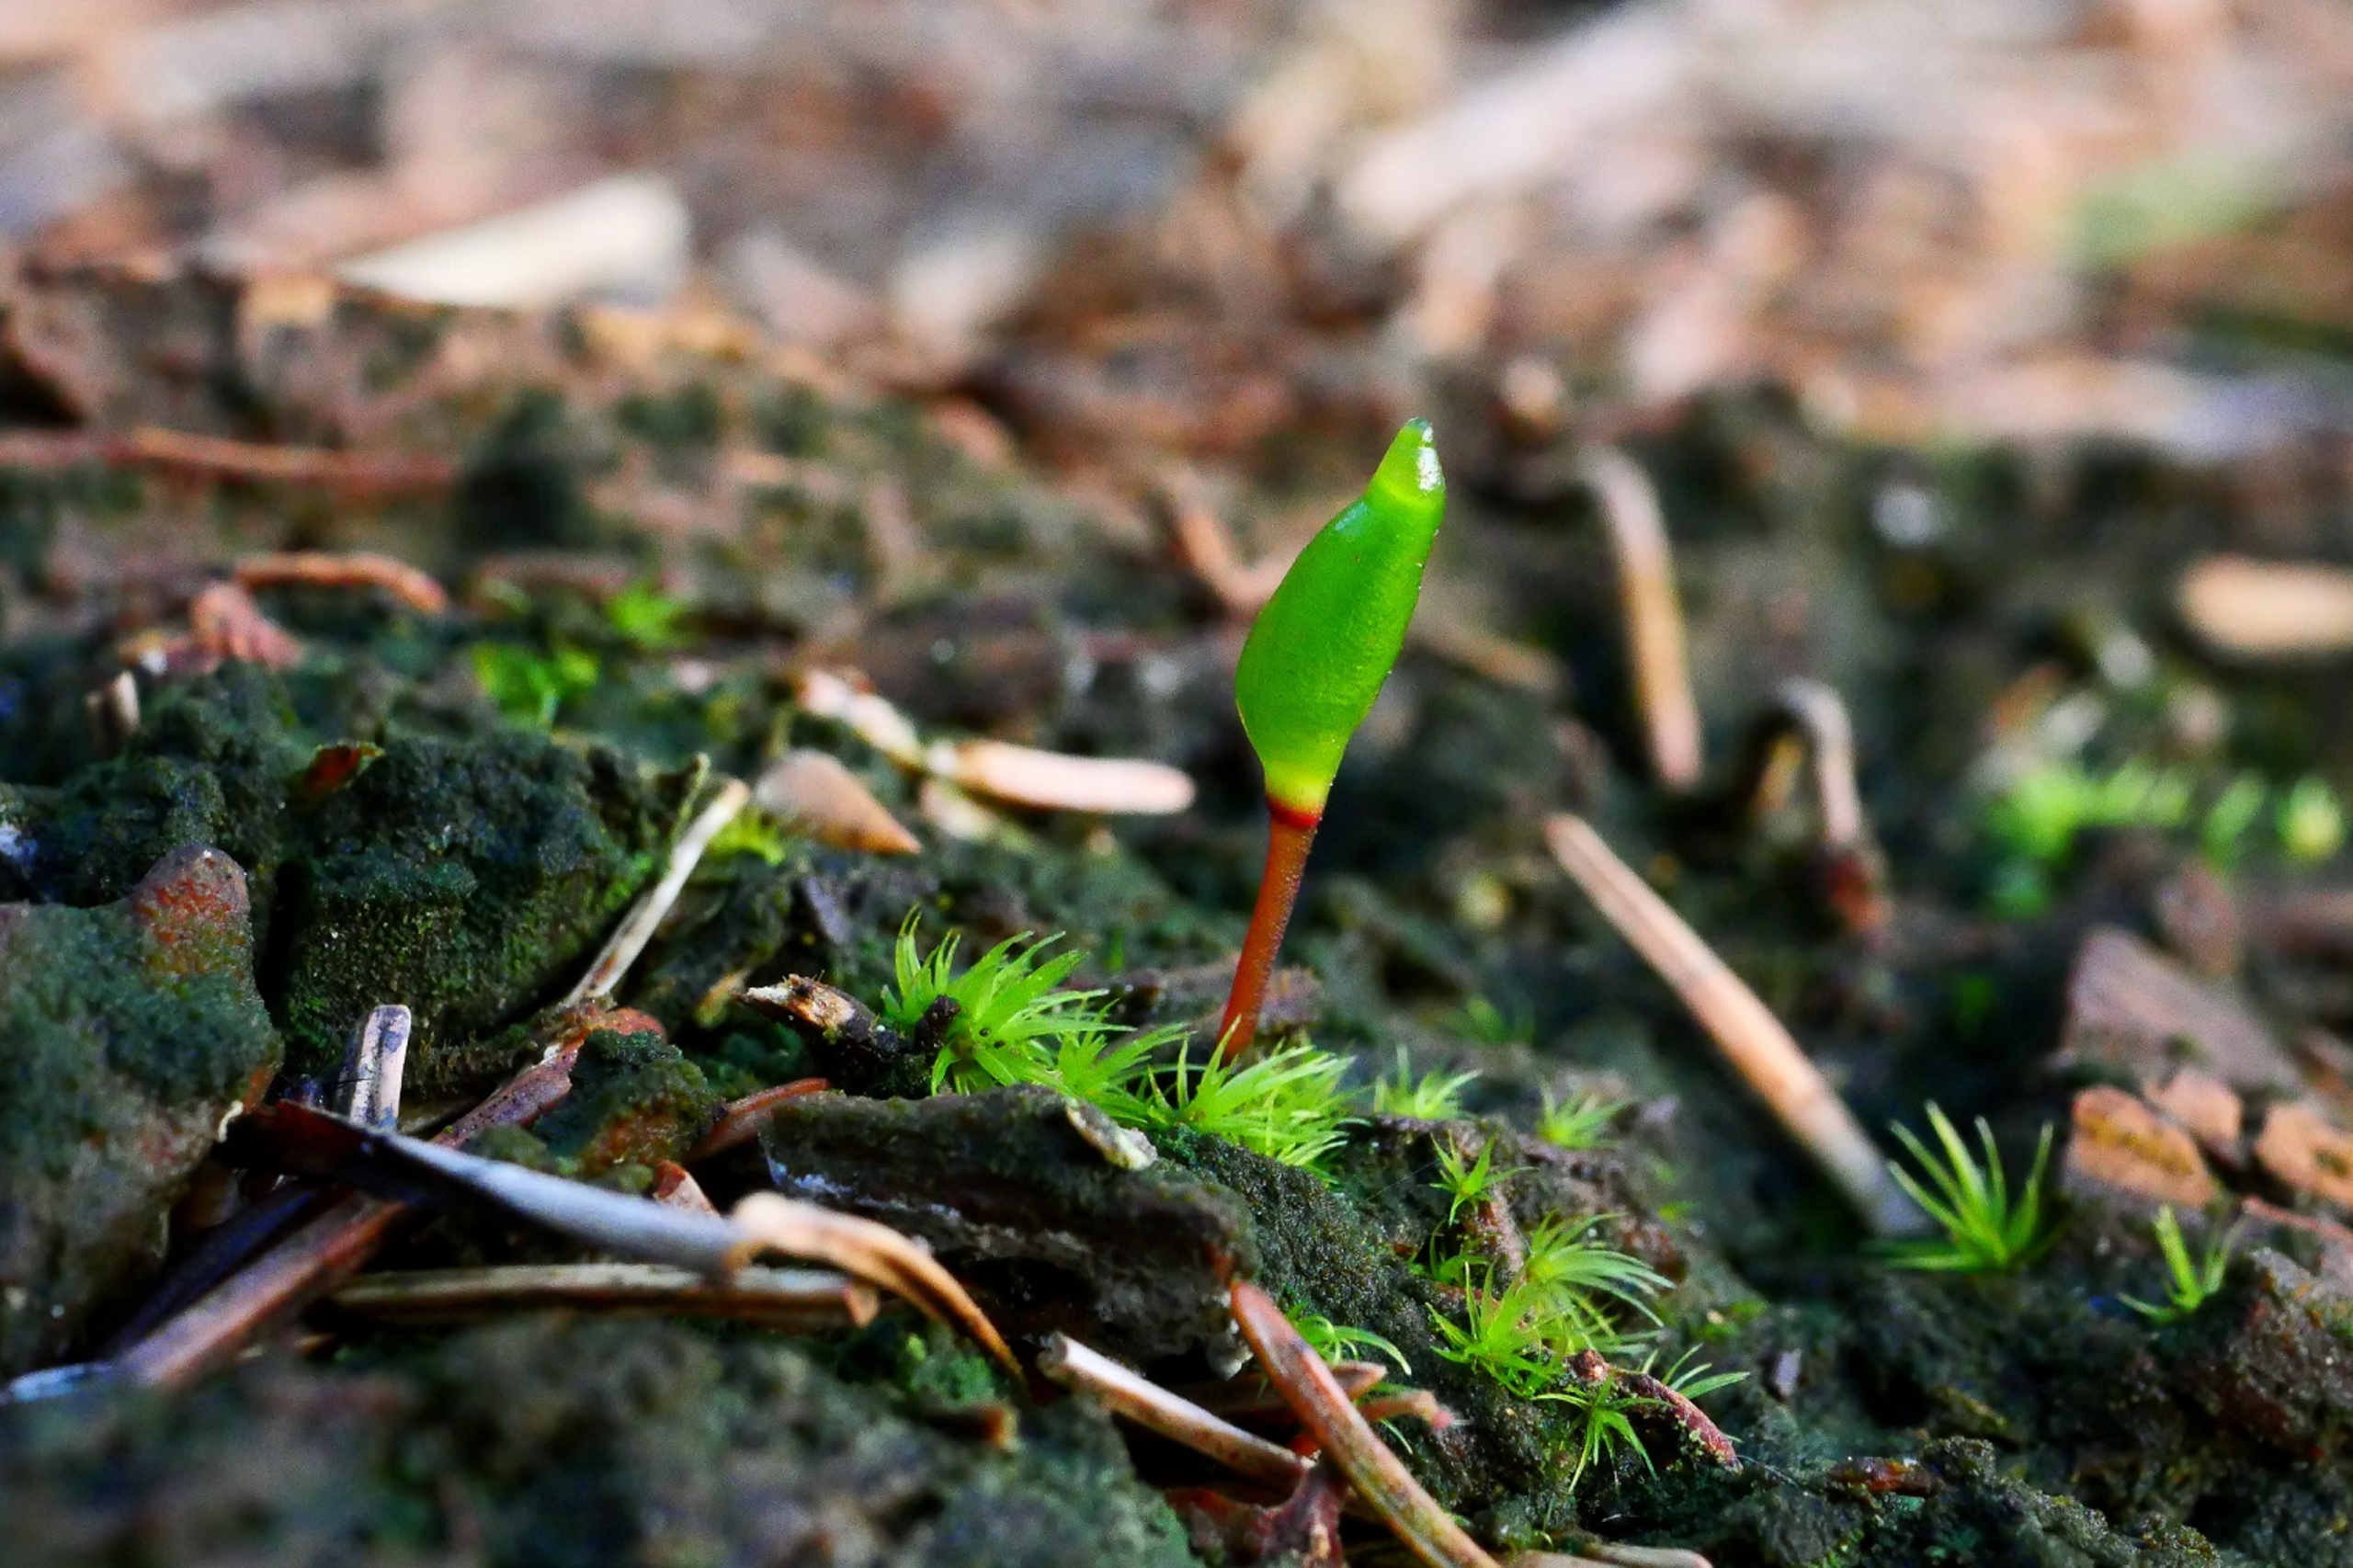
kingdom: Plantae
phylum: Bryophyta
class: Bryopsida
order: Buxbaumiales
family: Buxbaumiaceae
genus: Buxbaumia
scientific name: Buxbaumia viridis
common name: Grøn buxbaumia
